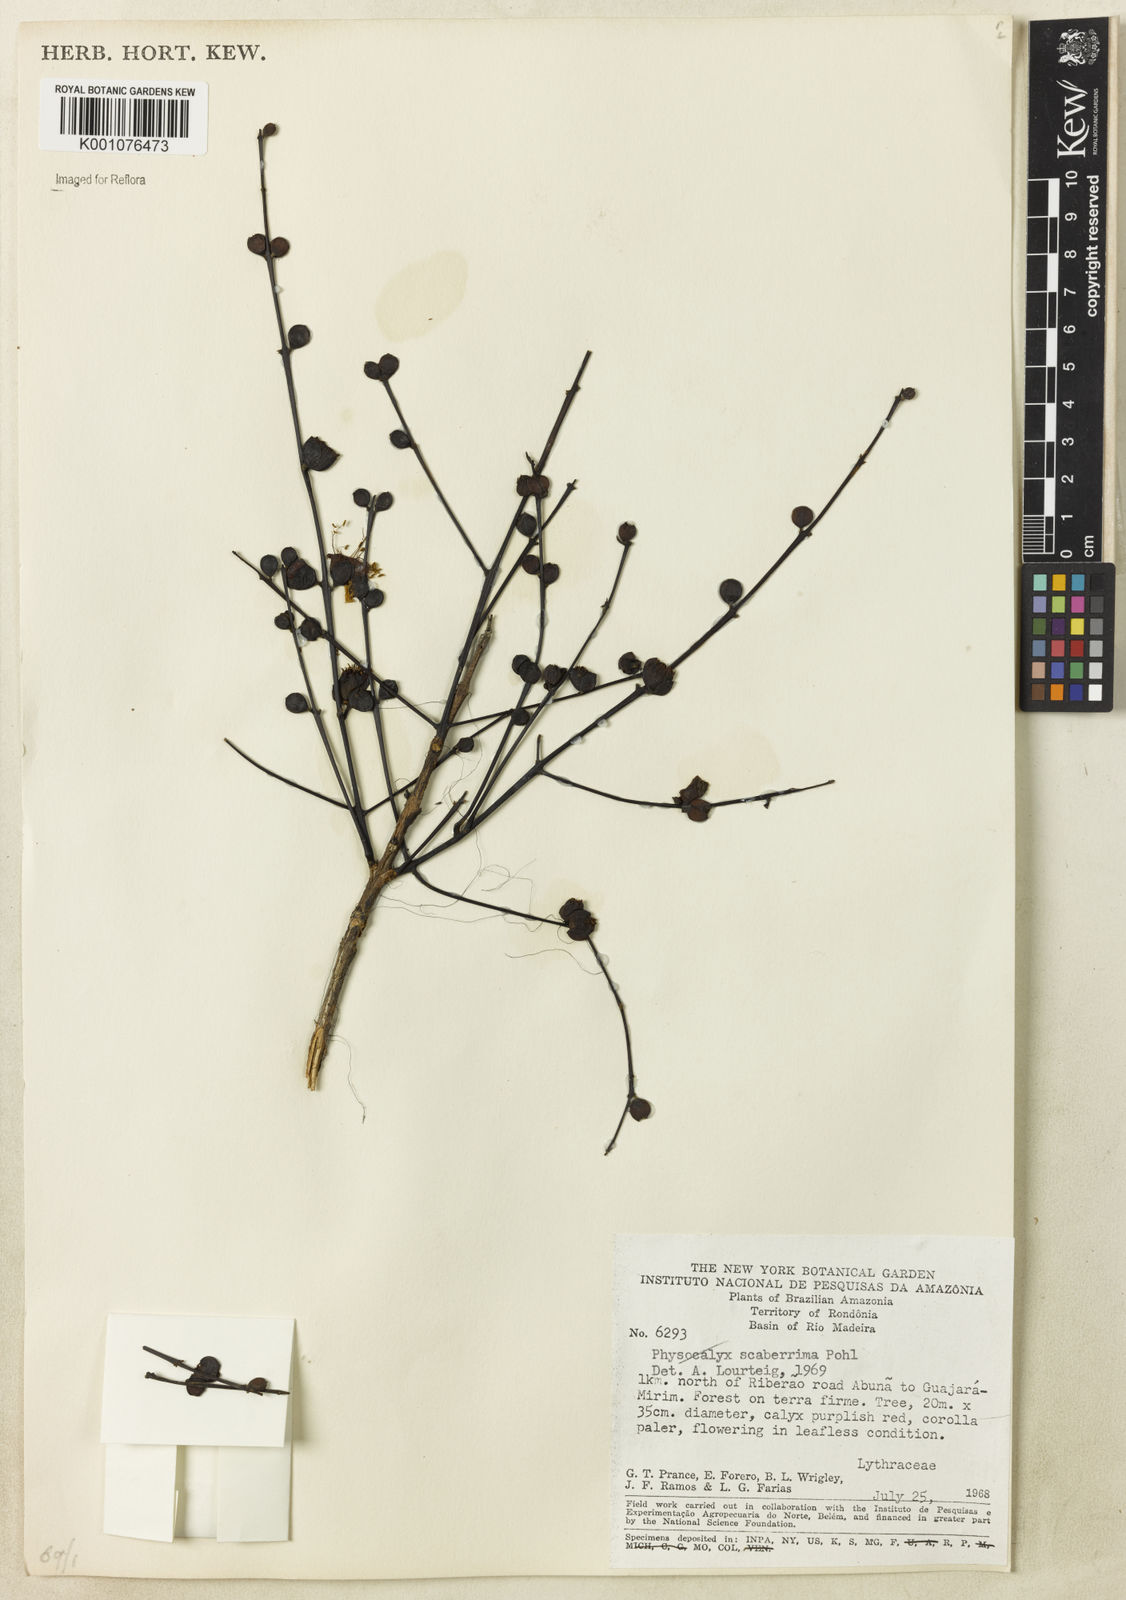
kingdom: Plantae
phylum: Tracheophyta
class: Magnoliopsida
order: Myrtales
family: Lythraceae
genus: Physocalymma
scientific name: Physocalymma scaberrimum
